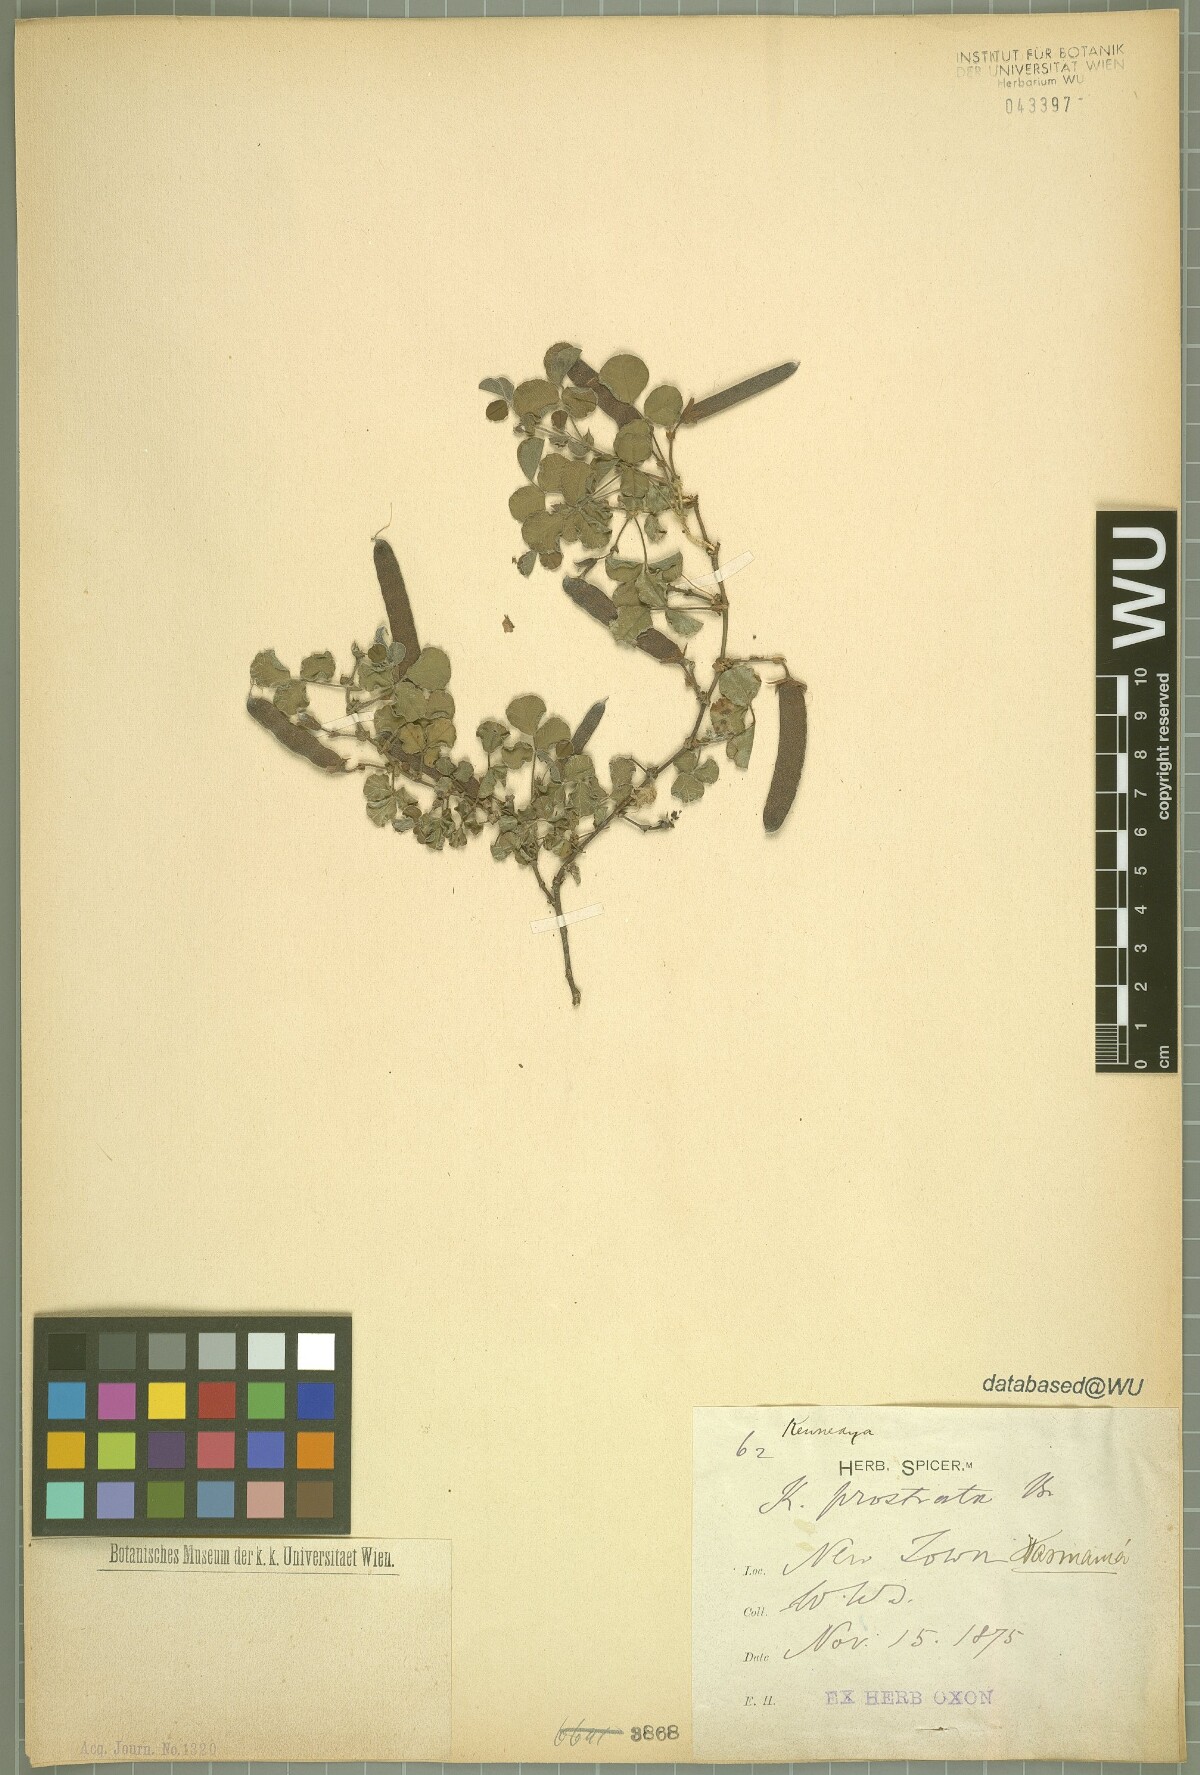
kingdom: Plantae
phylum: Tracheophyta
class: Magnoliopsida
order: Fabales
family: Fabaceae
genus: Kennedia
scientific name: Kennedia prostrata
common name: Running-postman
